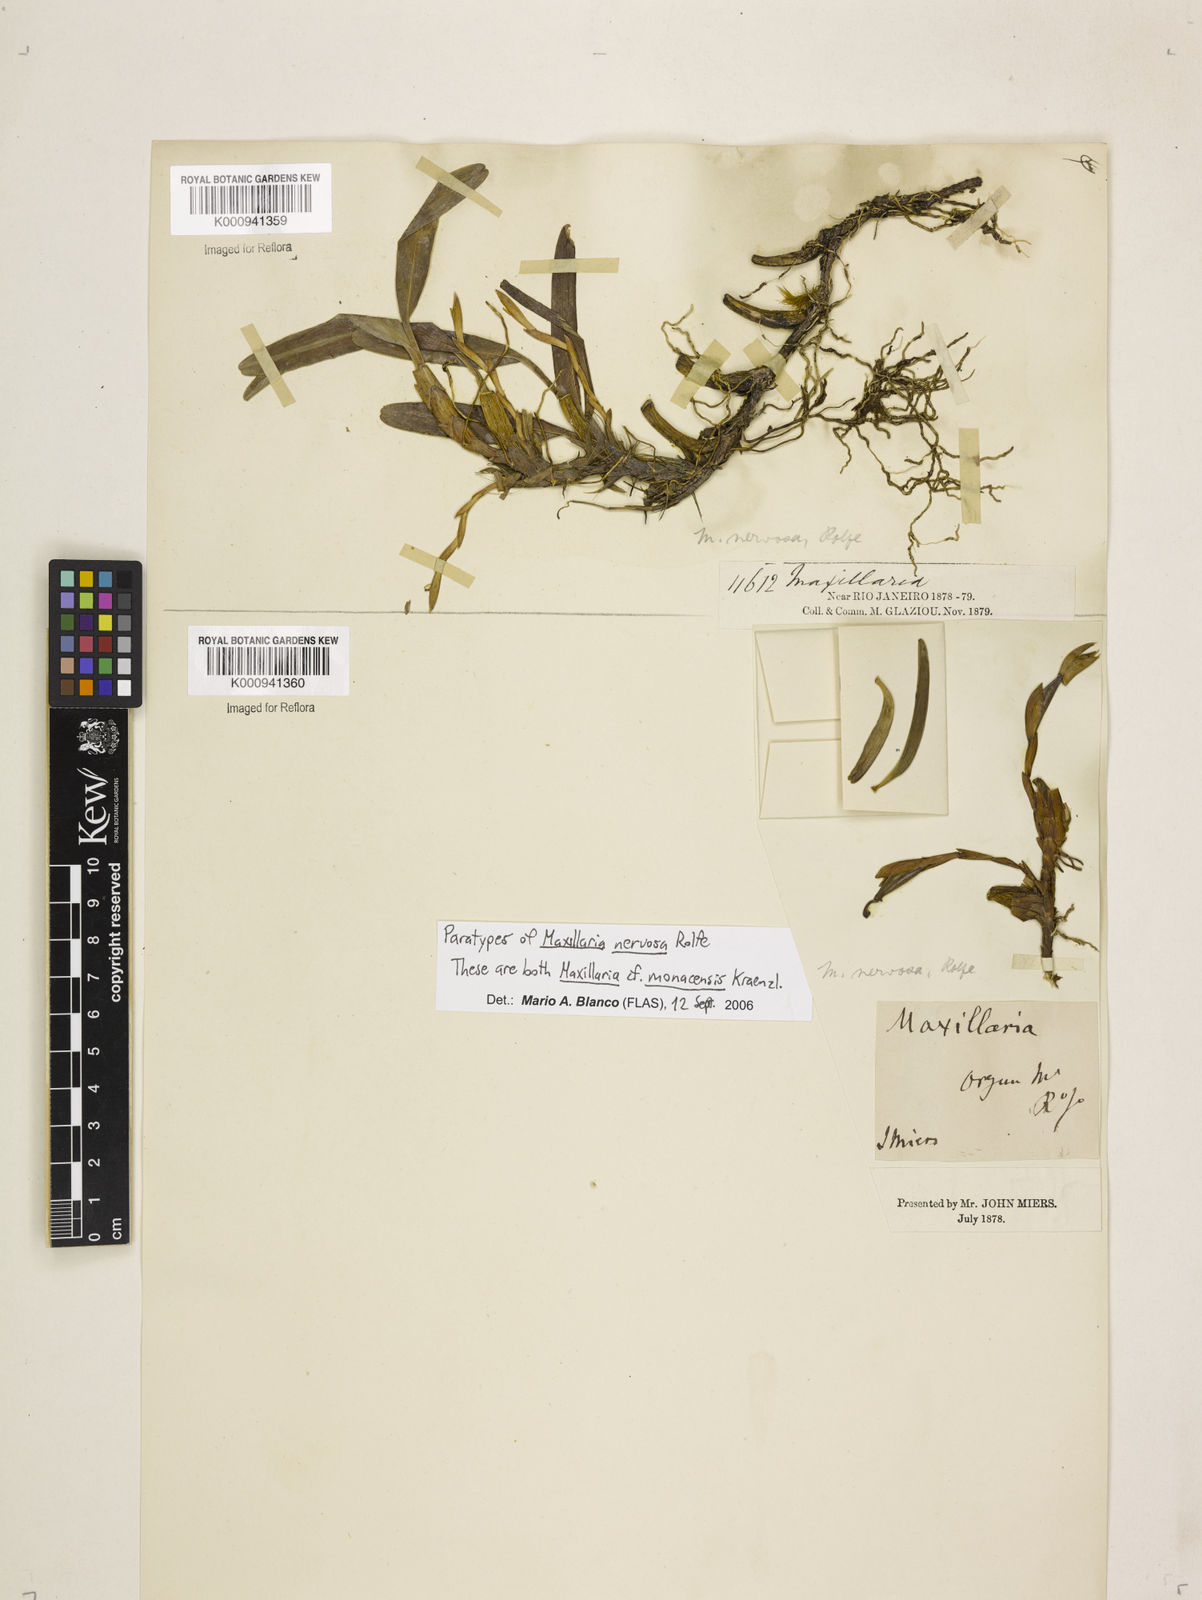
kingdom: Plantae
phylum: Tracheophyta
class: Liliopsida
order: Asparagales
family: Orchidaceae
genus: Maxillaria
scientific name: Maxillaria monacensis
